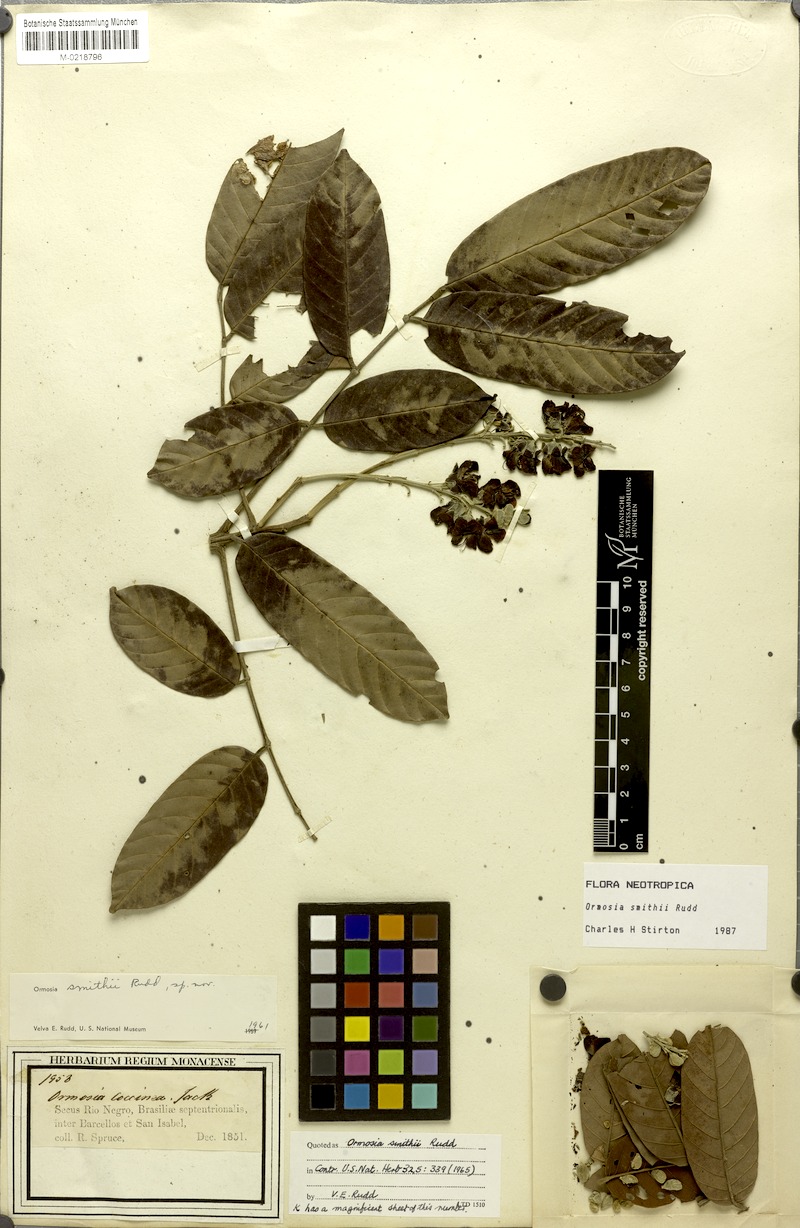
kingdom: Plantae
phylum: Tracheophyta
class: Magnoliopsida
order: Fabales
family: Fabaceae
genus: Ormosia
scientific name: Ormosia smithii
